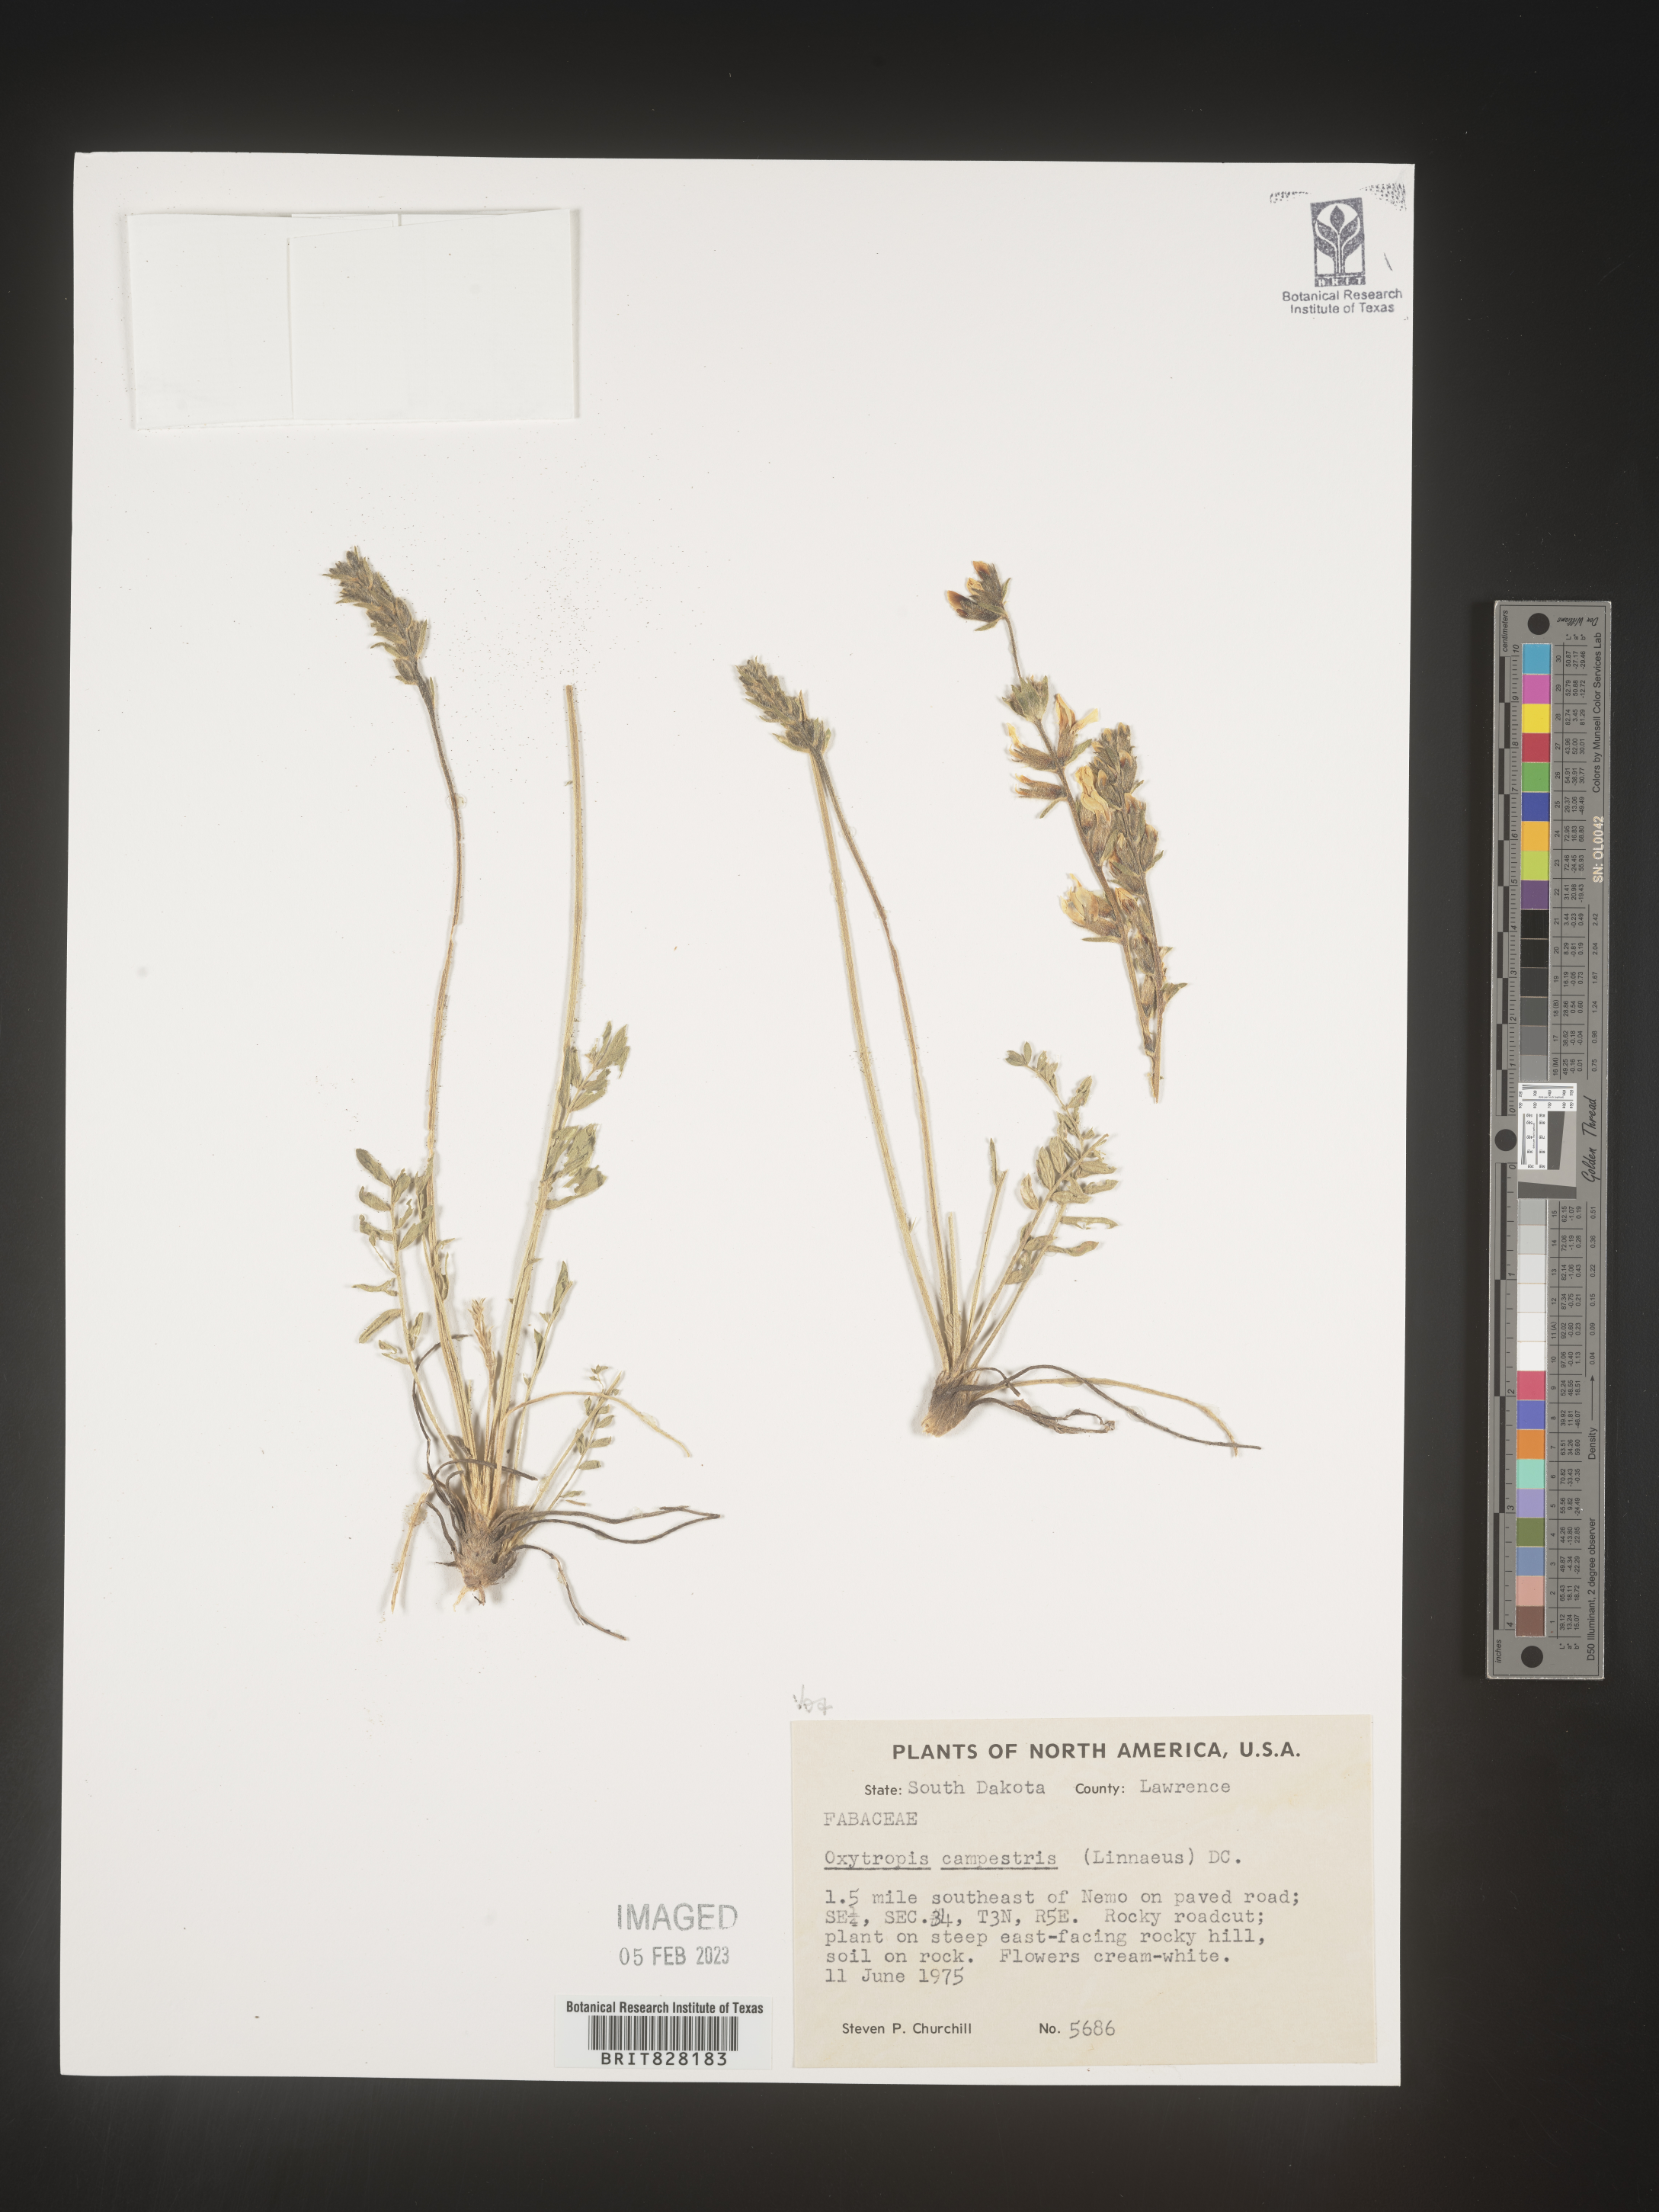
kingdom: Plantae
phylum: Tracheophyta
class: Magnoliopsida
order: Fabales
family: Fabaceae
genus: Oxytropis
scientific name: Oxytropis campestris
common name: Field locoweed
